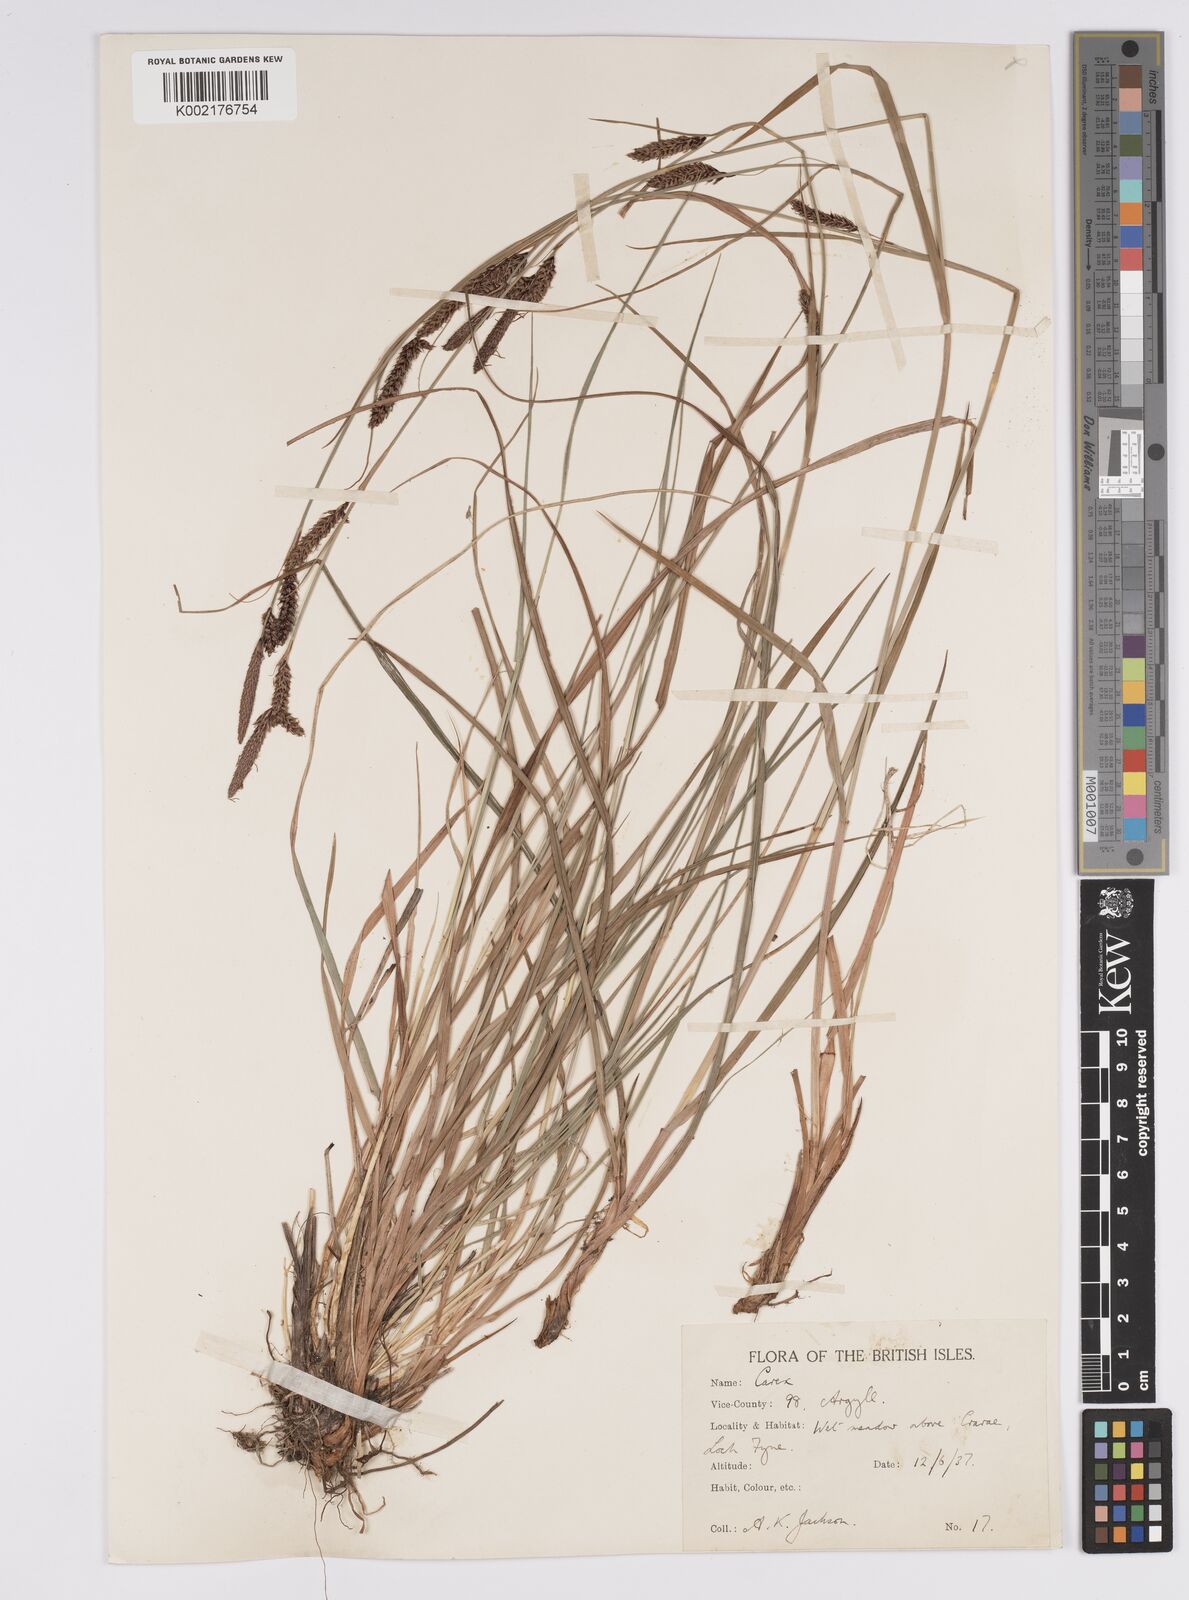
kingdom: Plantae
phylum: Tracheophyta
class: Liliopsida
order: Poales
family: Cyperaceae
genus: Carex
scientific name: Carex binervis
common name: Green-ribbed sedge
